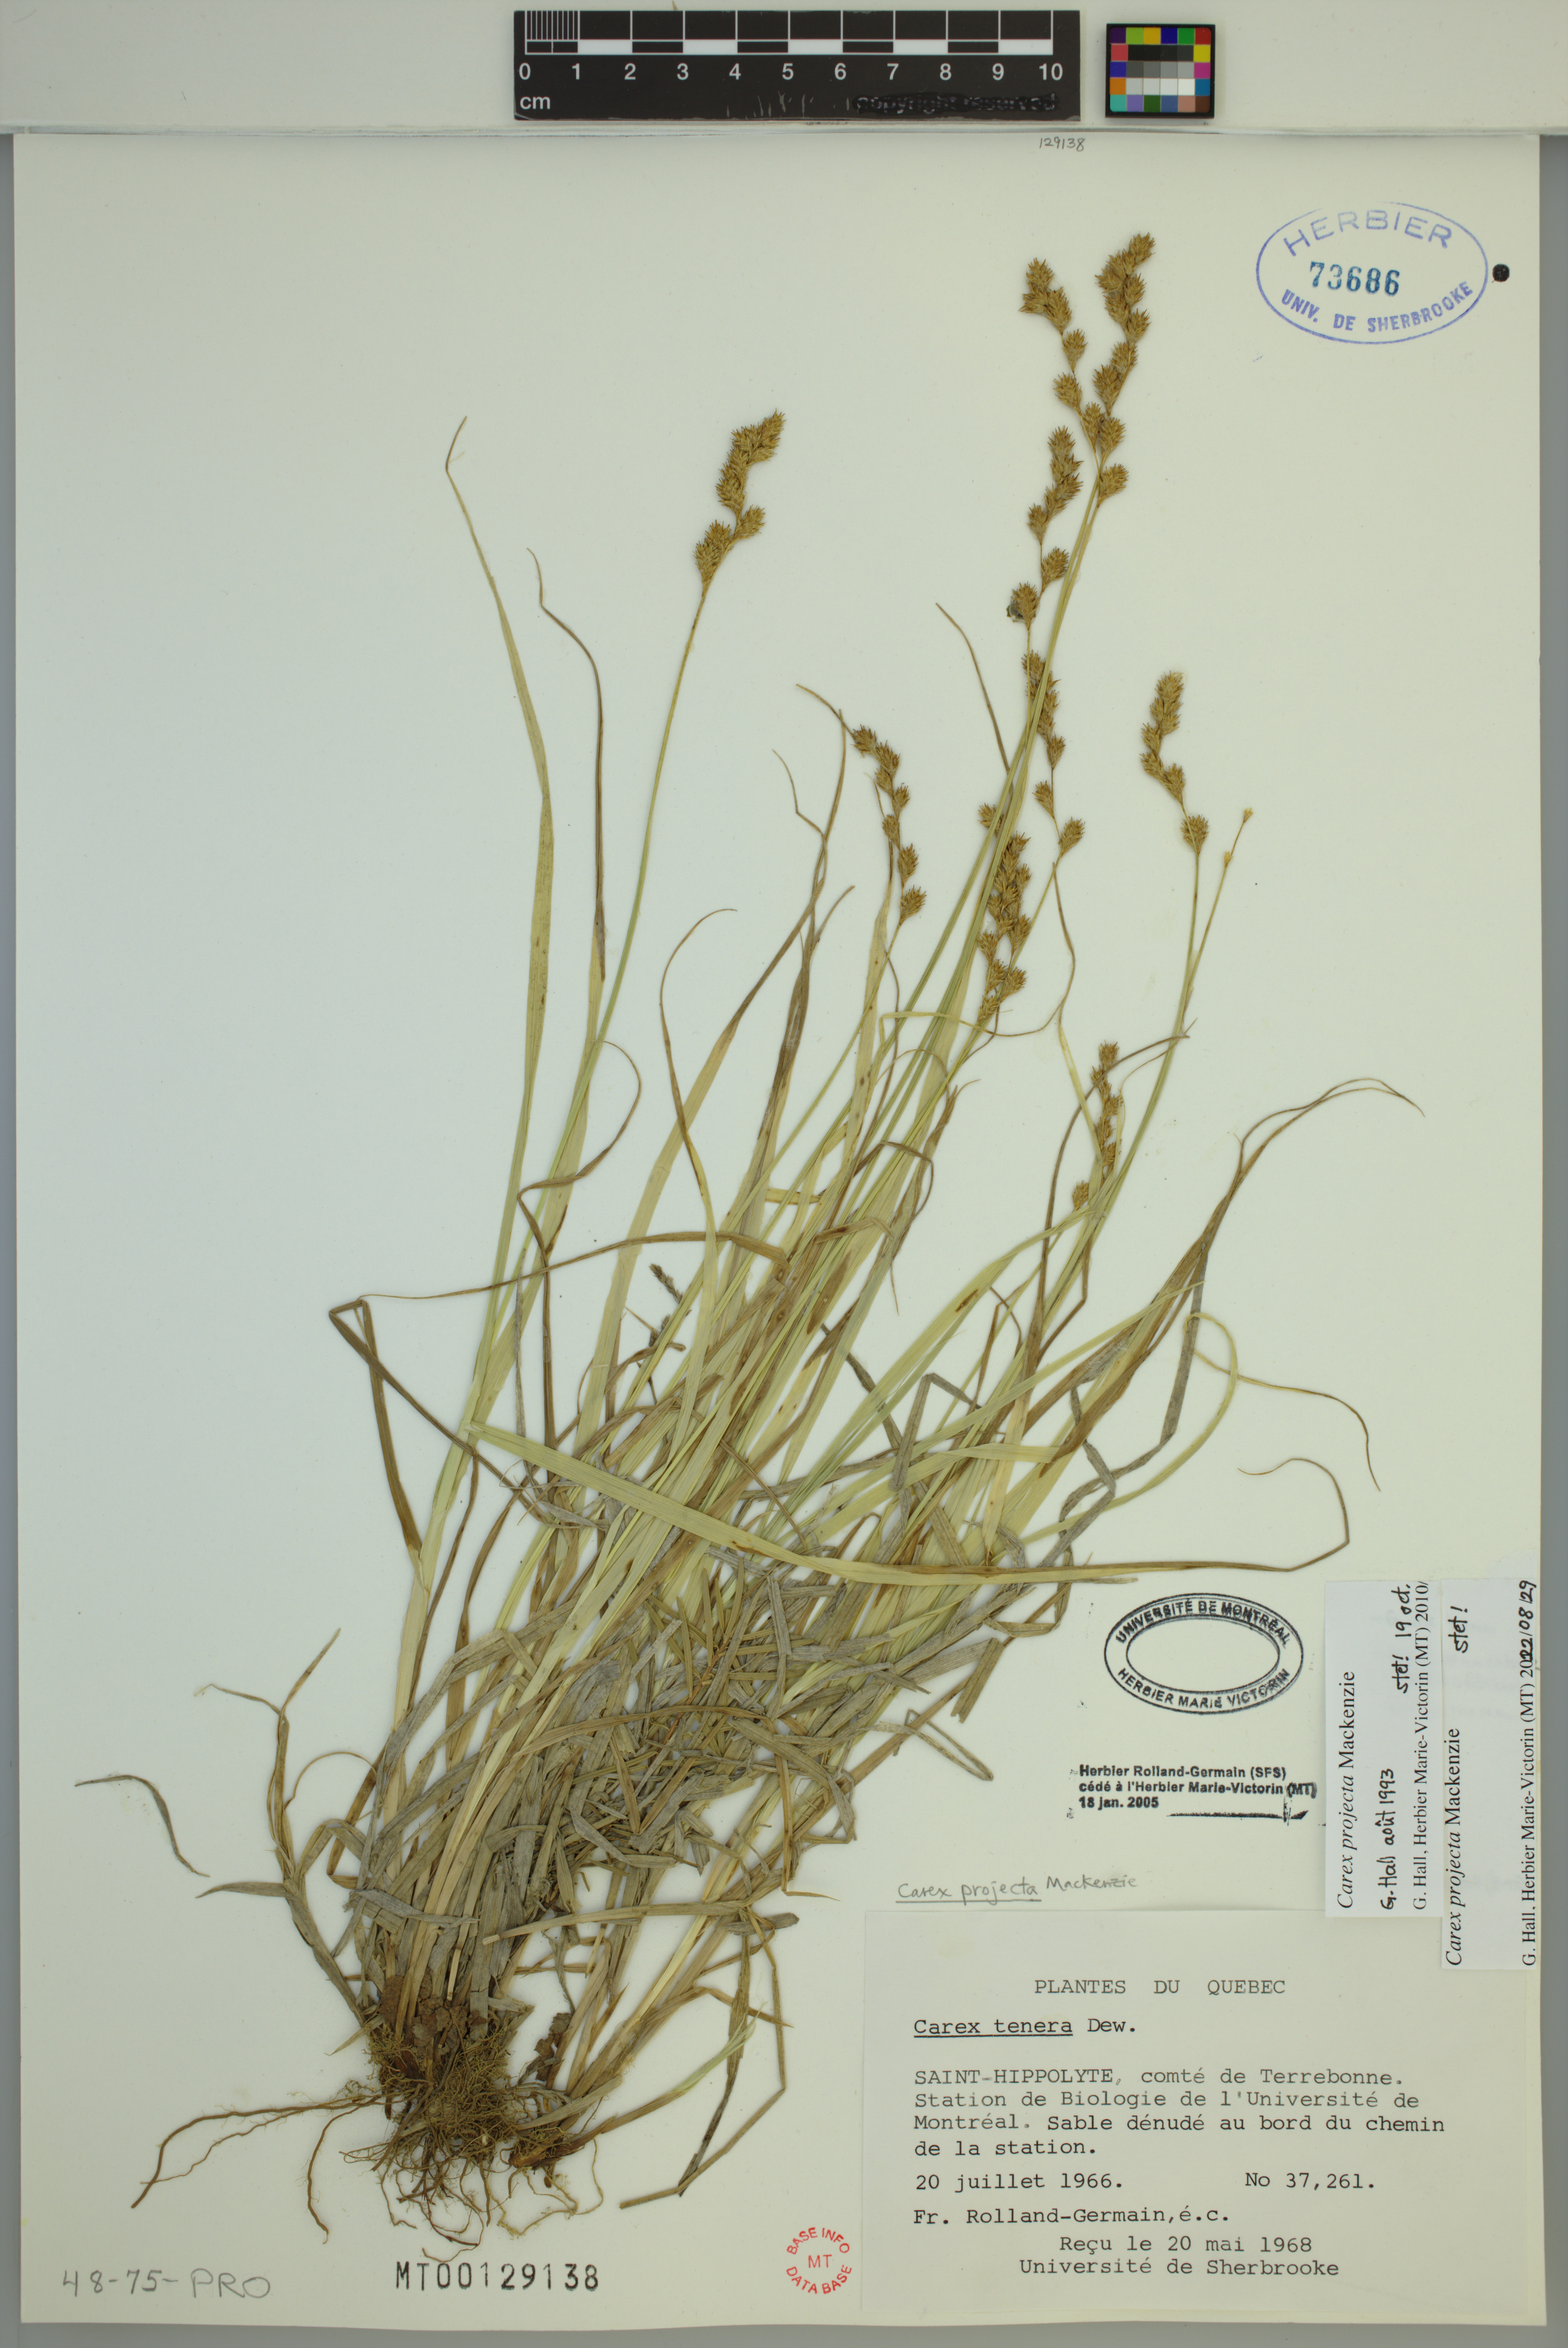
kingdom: Plantae
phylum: Tracheophyta
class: Liliopsida
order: Poales
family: Cyperaceae
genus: Carex
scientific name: Carex projecta
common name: Loose-headed oval sedge
